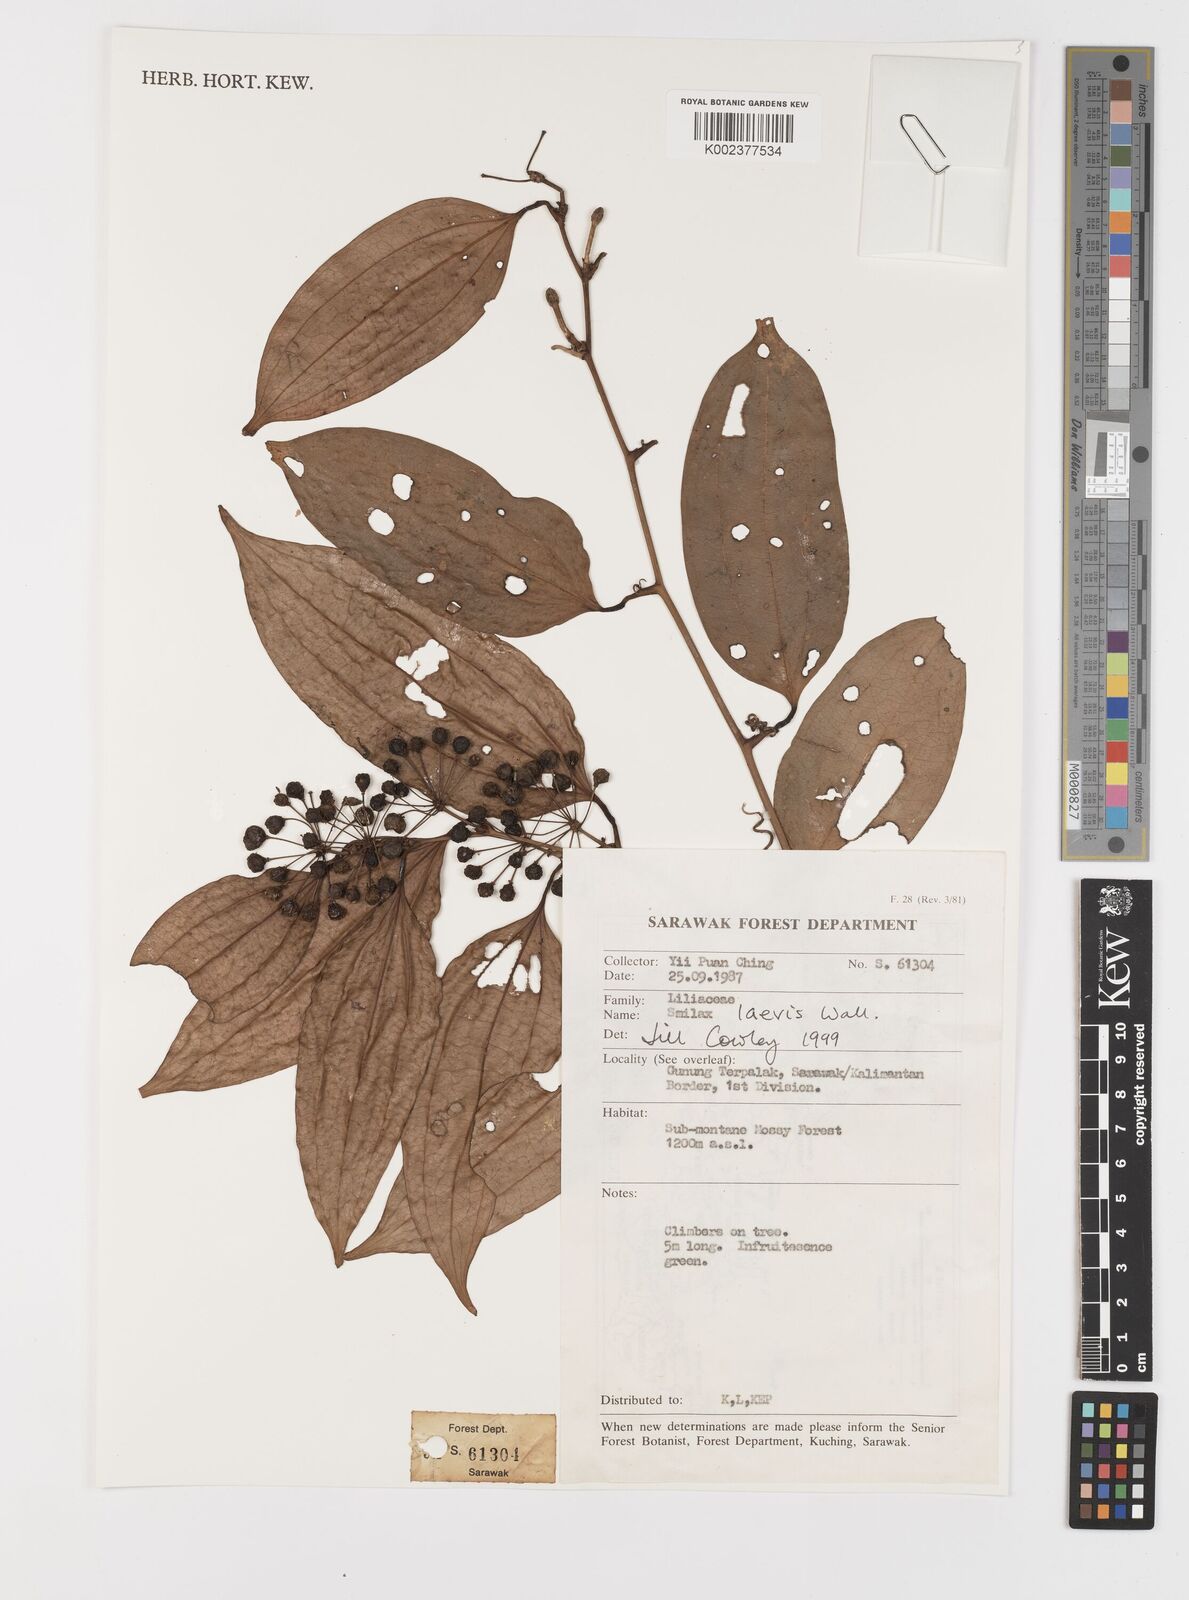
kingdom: Plantae
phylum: Tracheophyta
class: Liliopsida
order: Liliales
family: Smilacaceae
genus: Smilax
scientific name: Smilax laevis
